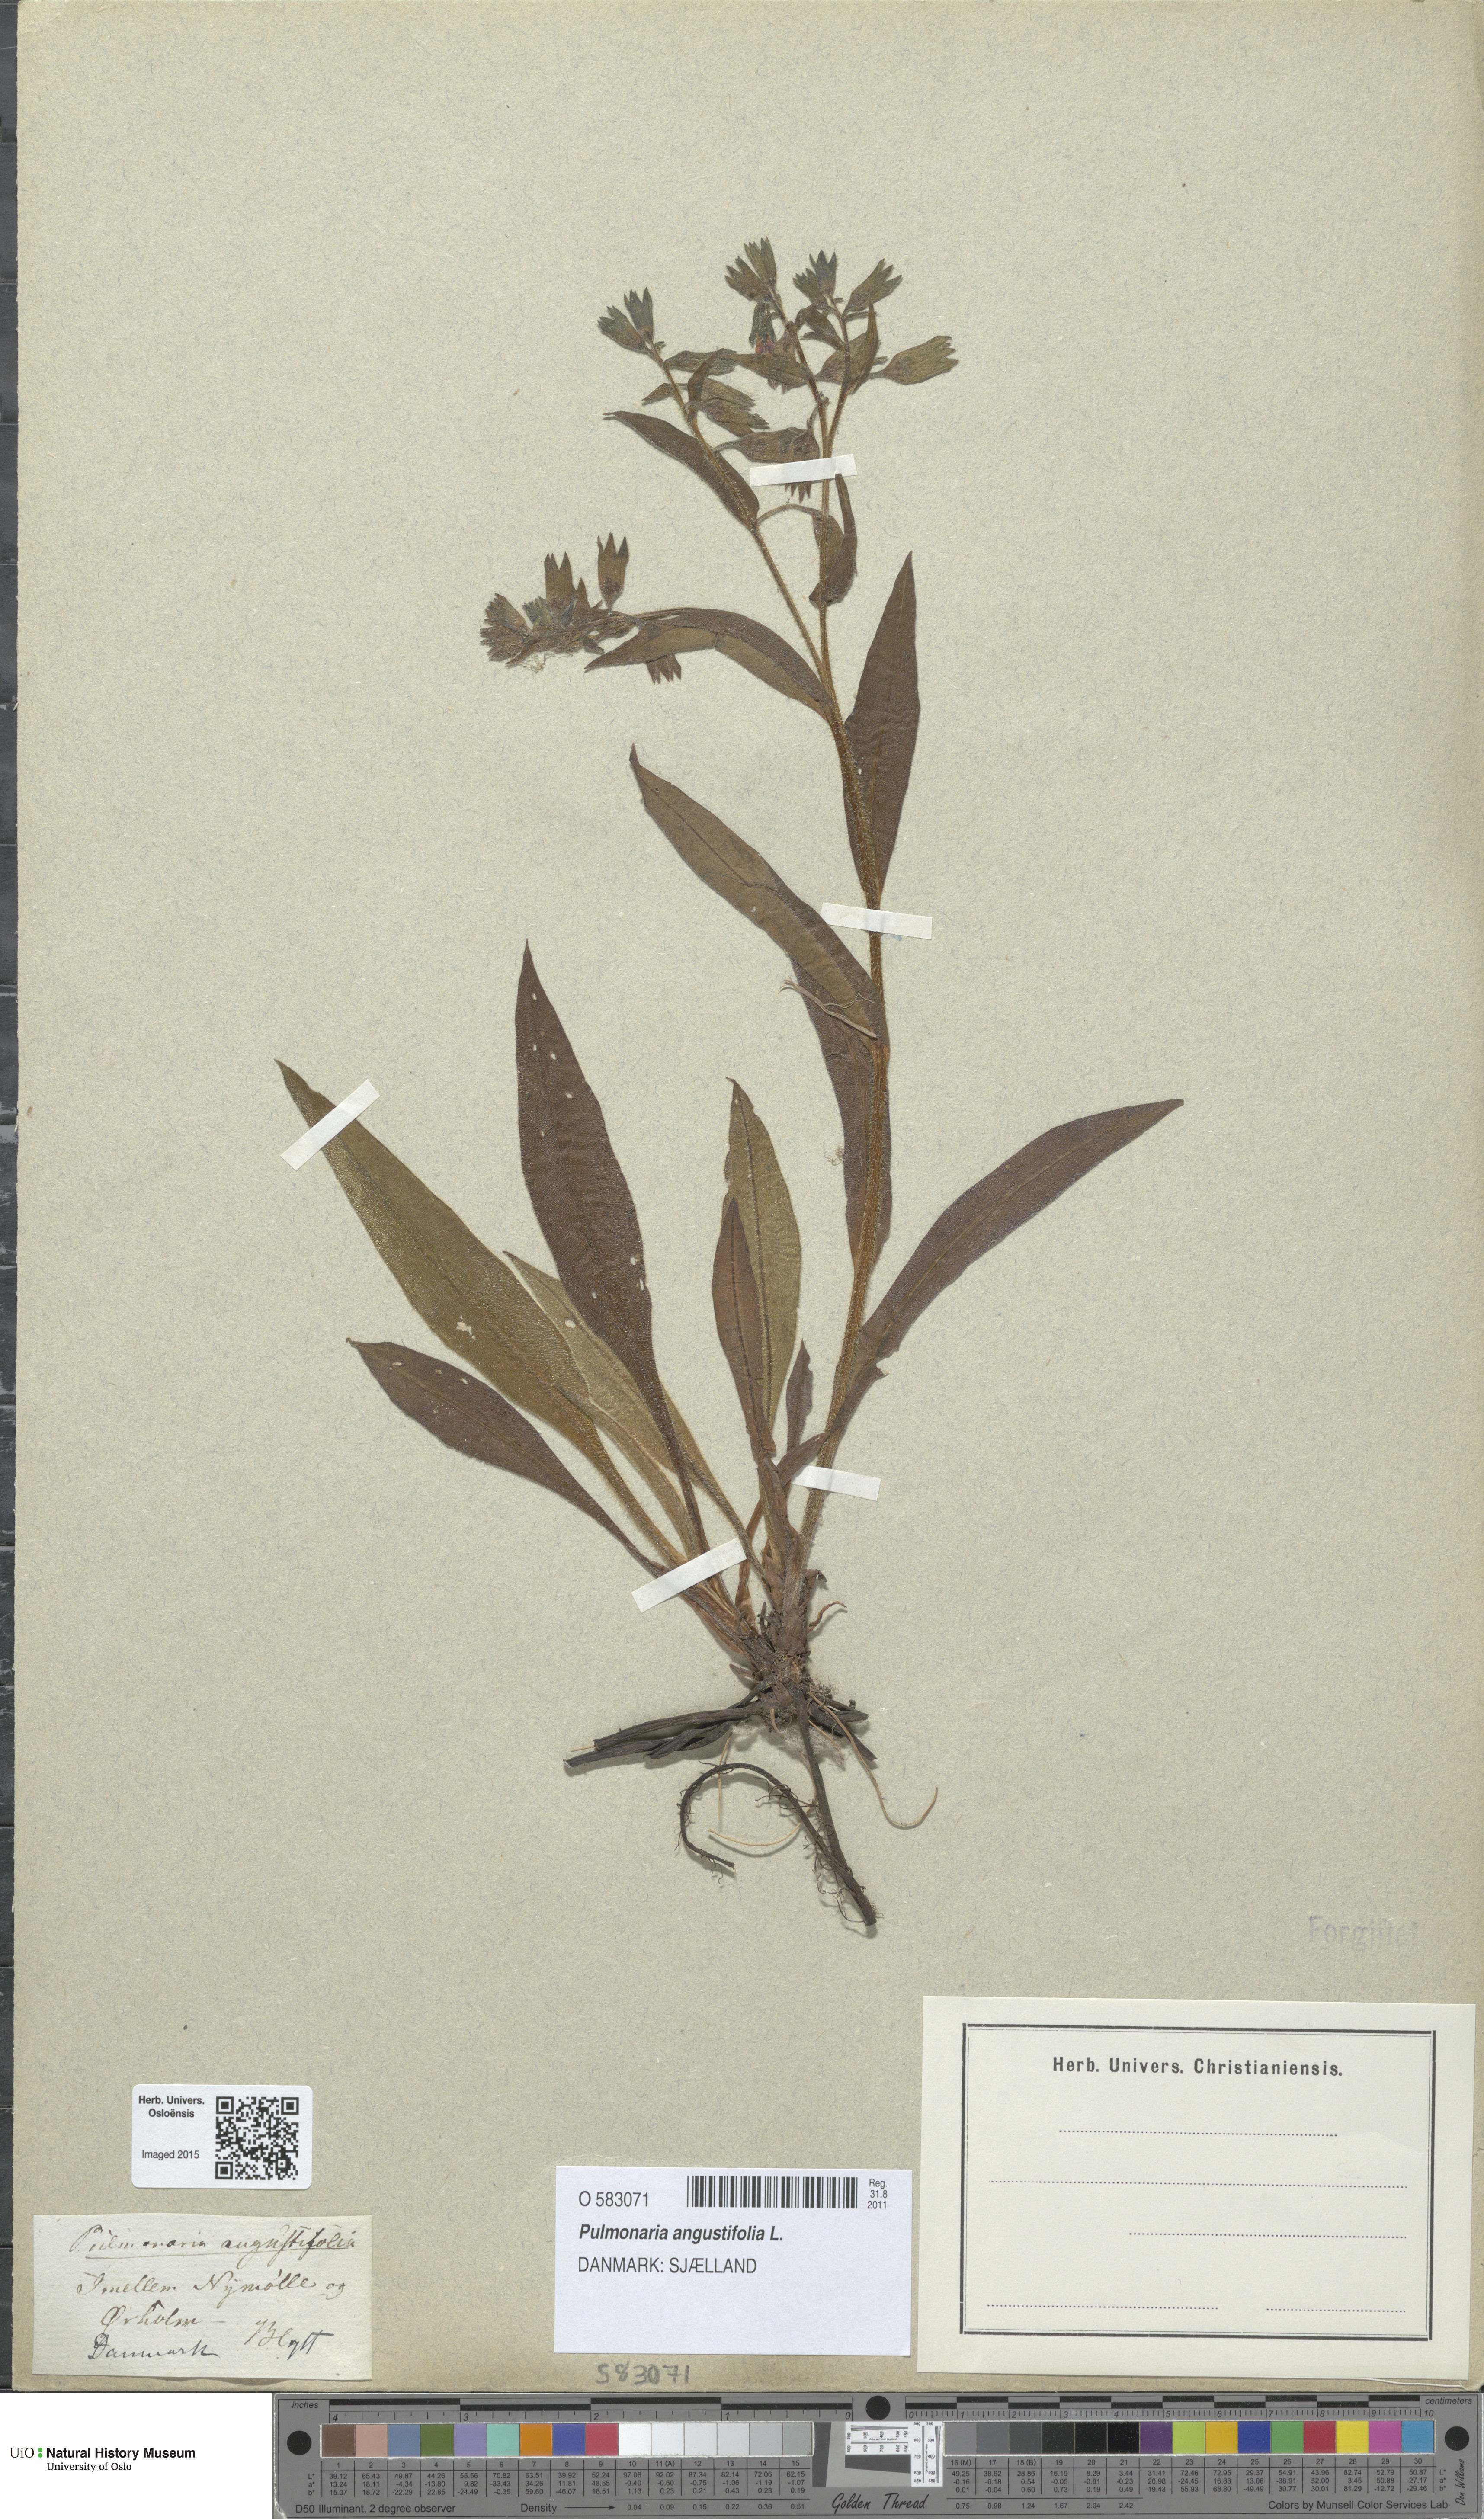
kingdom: Plantae
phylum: Tracheophyta
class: Magnoliopsida
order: Boraginales
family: Boraginaceae
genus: Pulmonaria
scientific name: Pulmonaria angustifolia
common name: Blue cowslip
